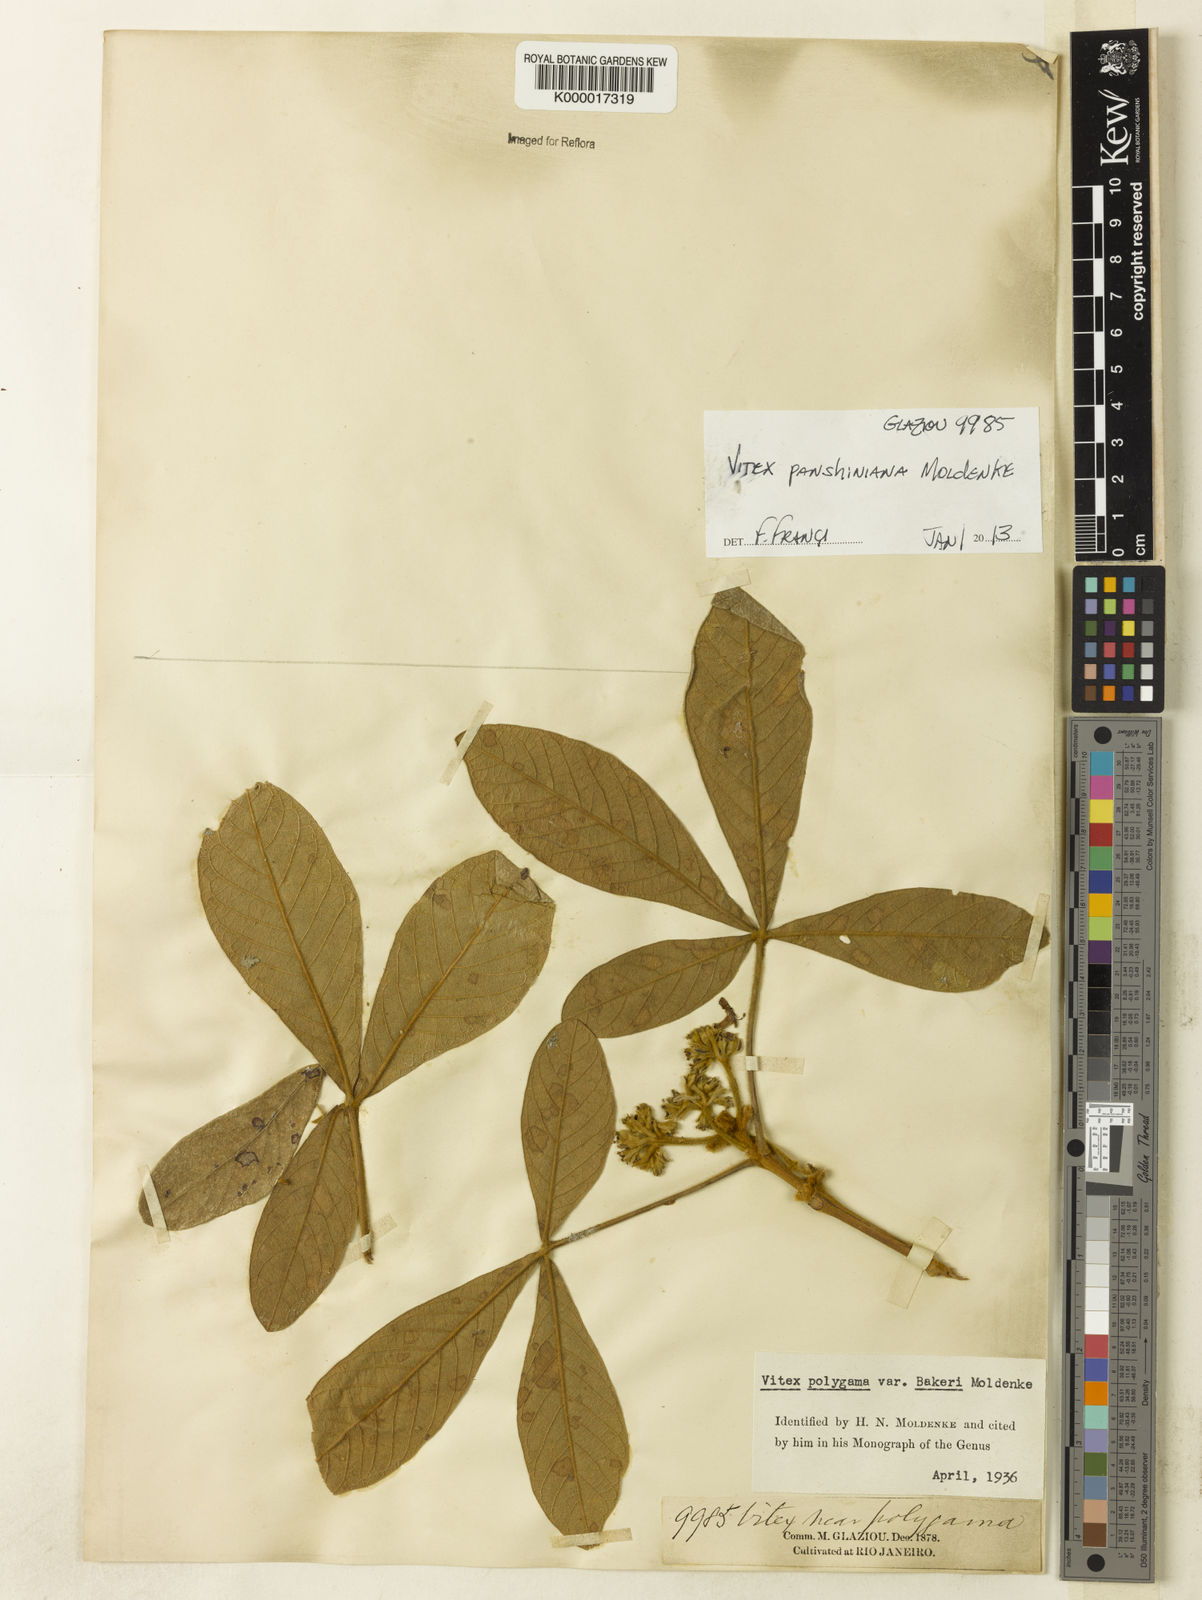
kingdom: Plantae
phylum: Tracheophyta
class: Magnoliopsida
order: Lamiales
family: Lamiaceae
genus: Vitex
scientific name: Vitex panshiniana
